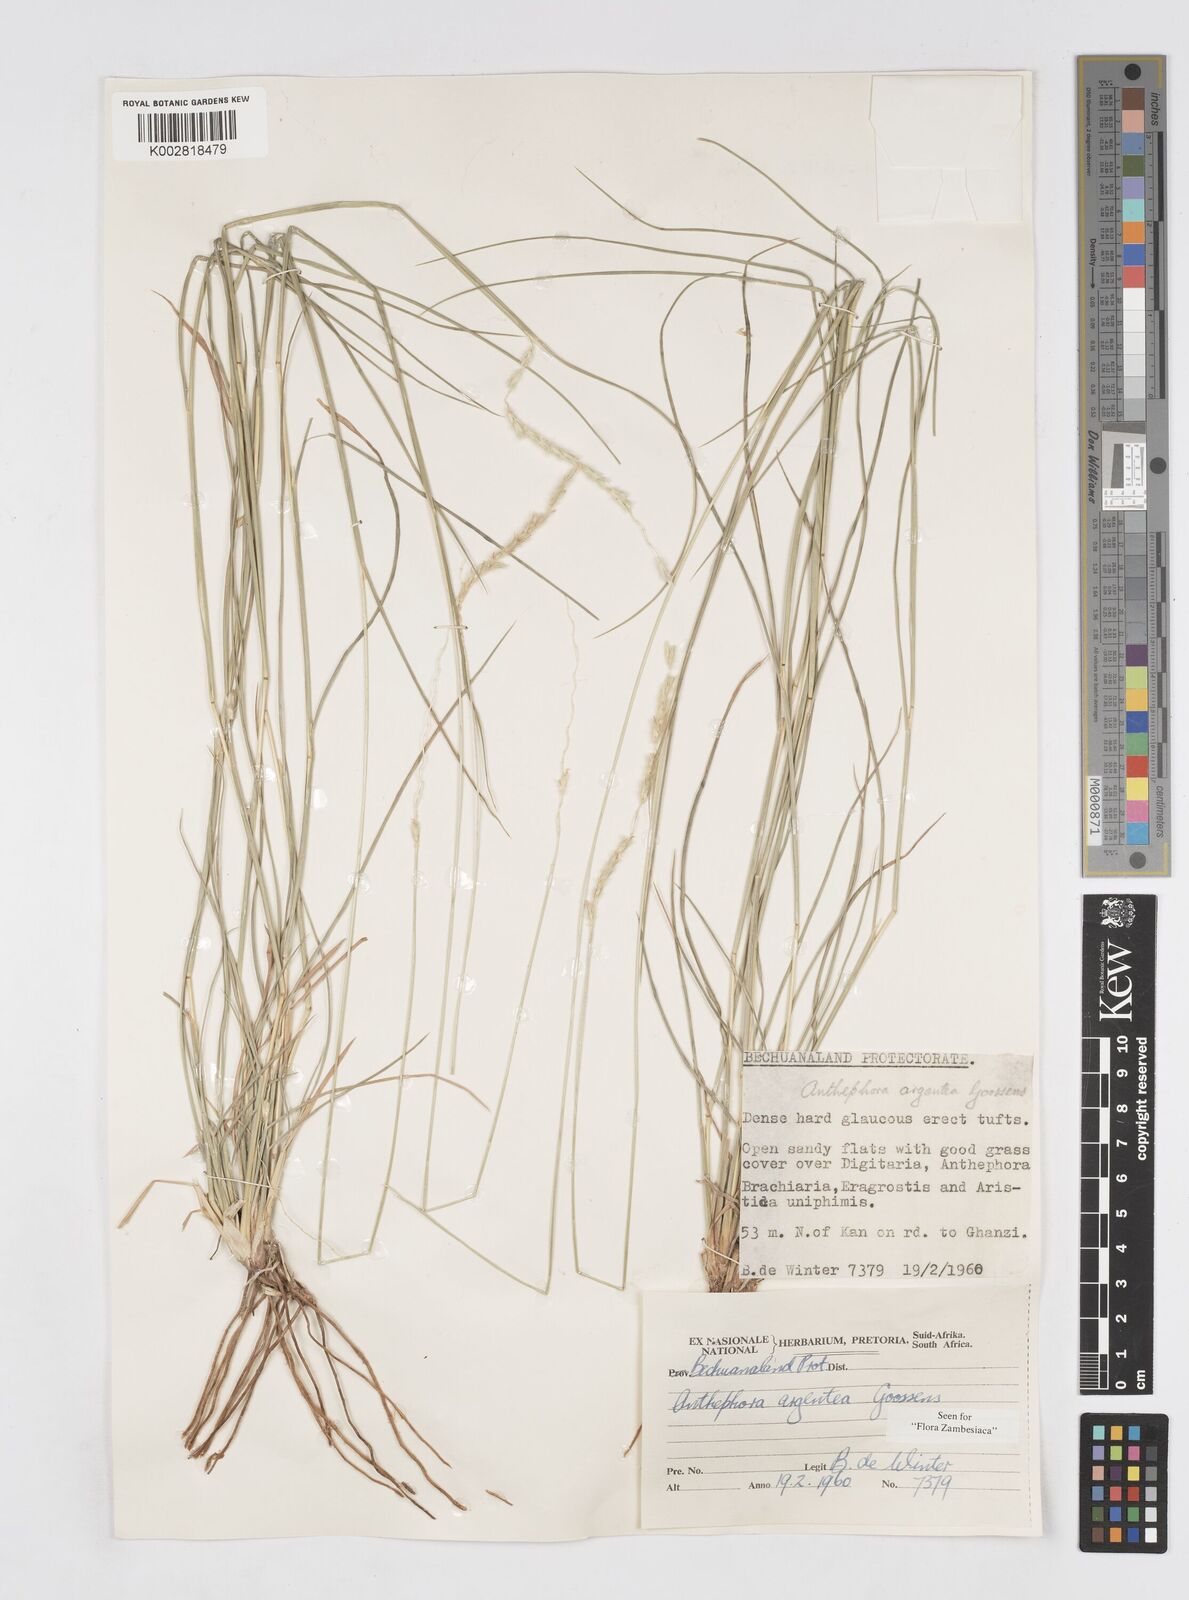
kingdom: Plantae
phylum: Tracheophyta
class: Liliopsida
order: Poales
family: Poaceae
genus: Anthephora
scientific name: Anthephora argentea
